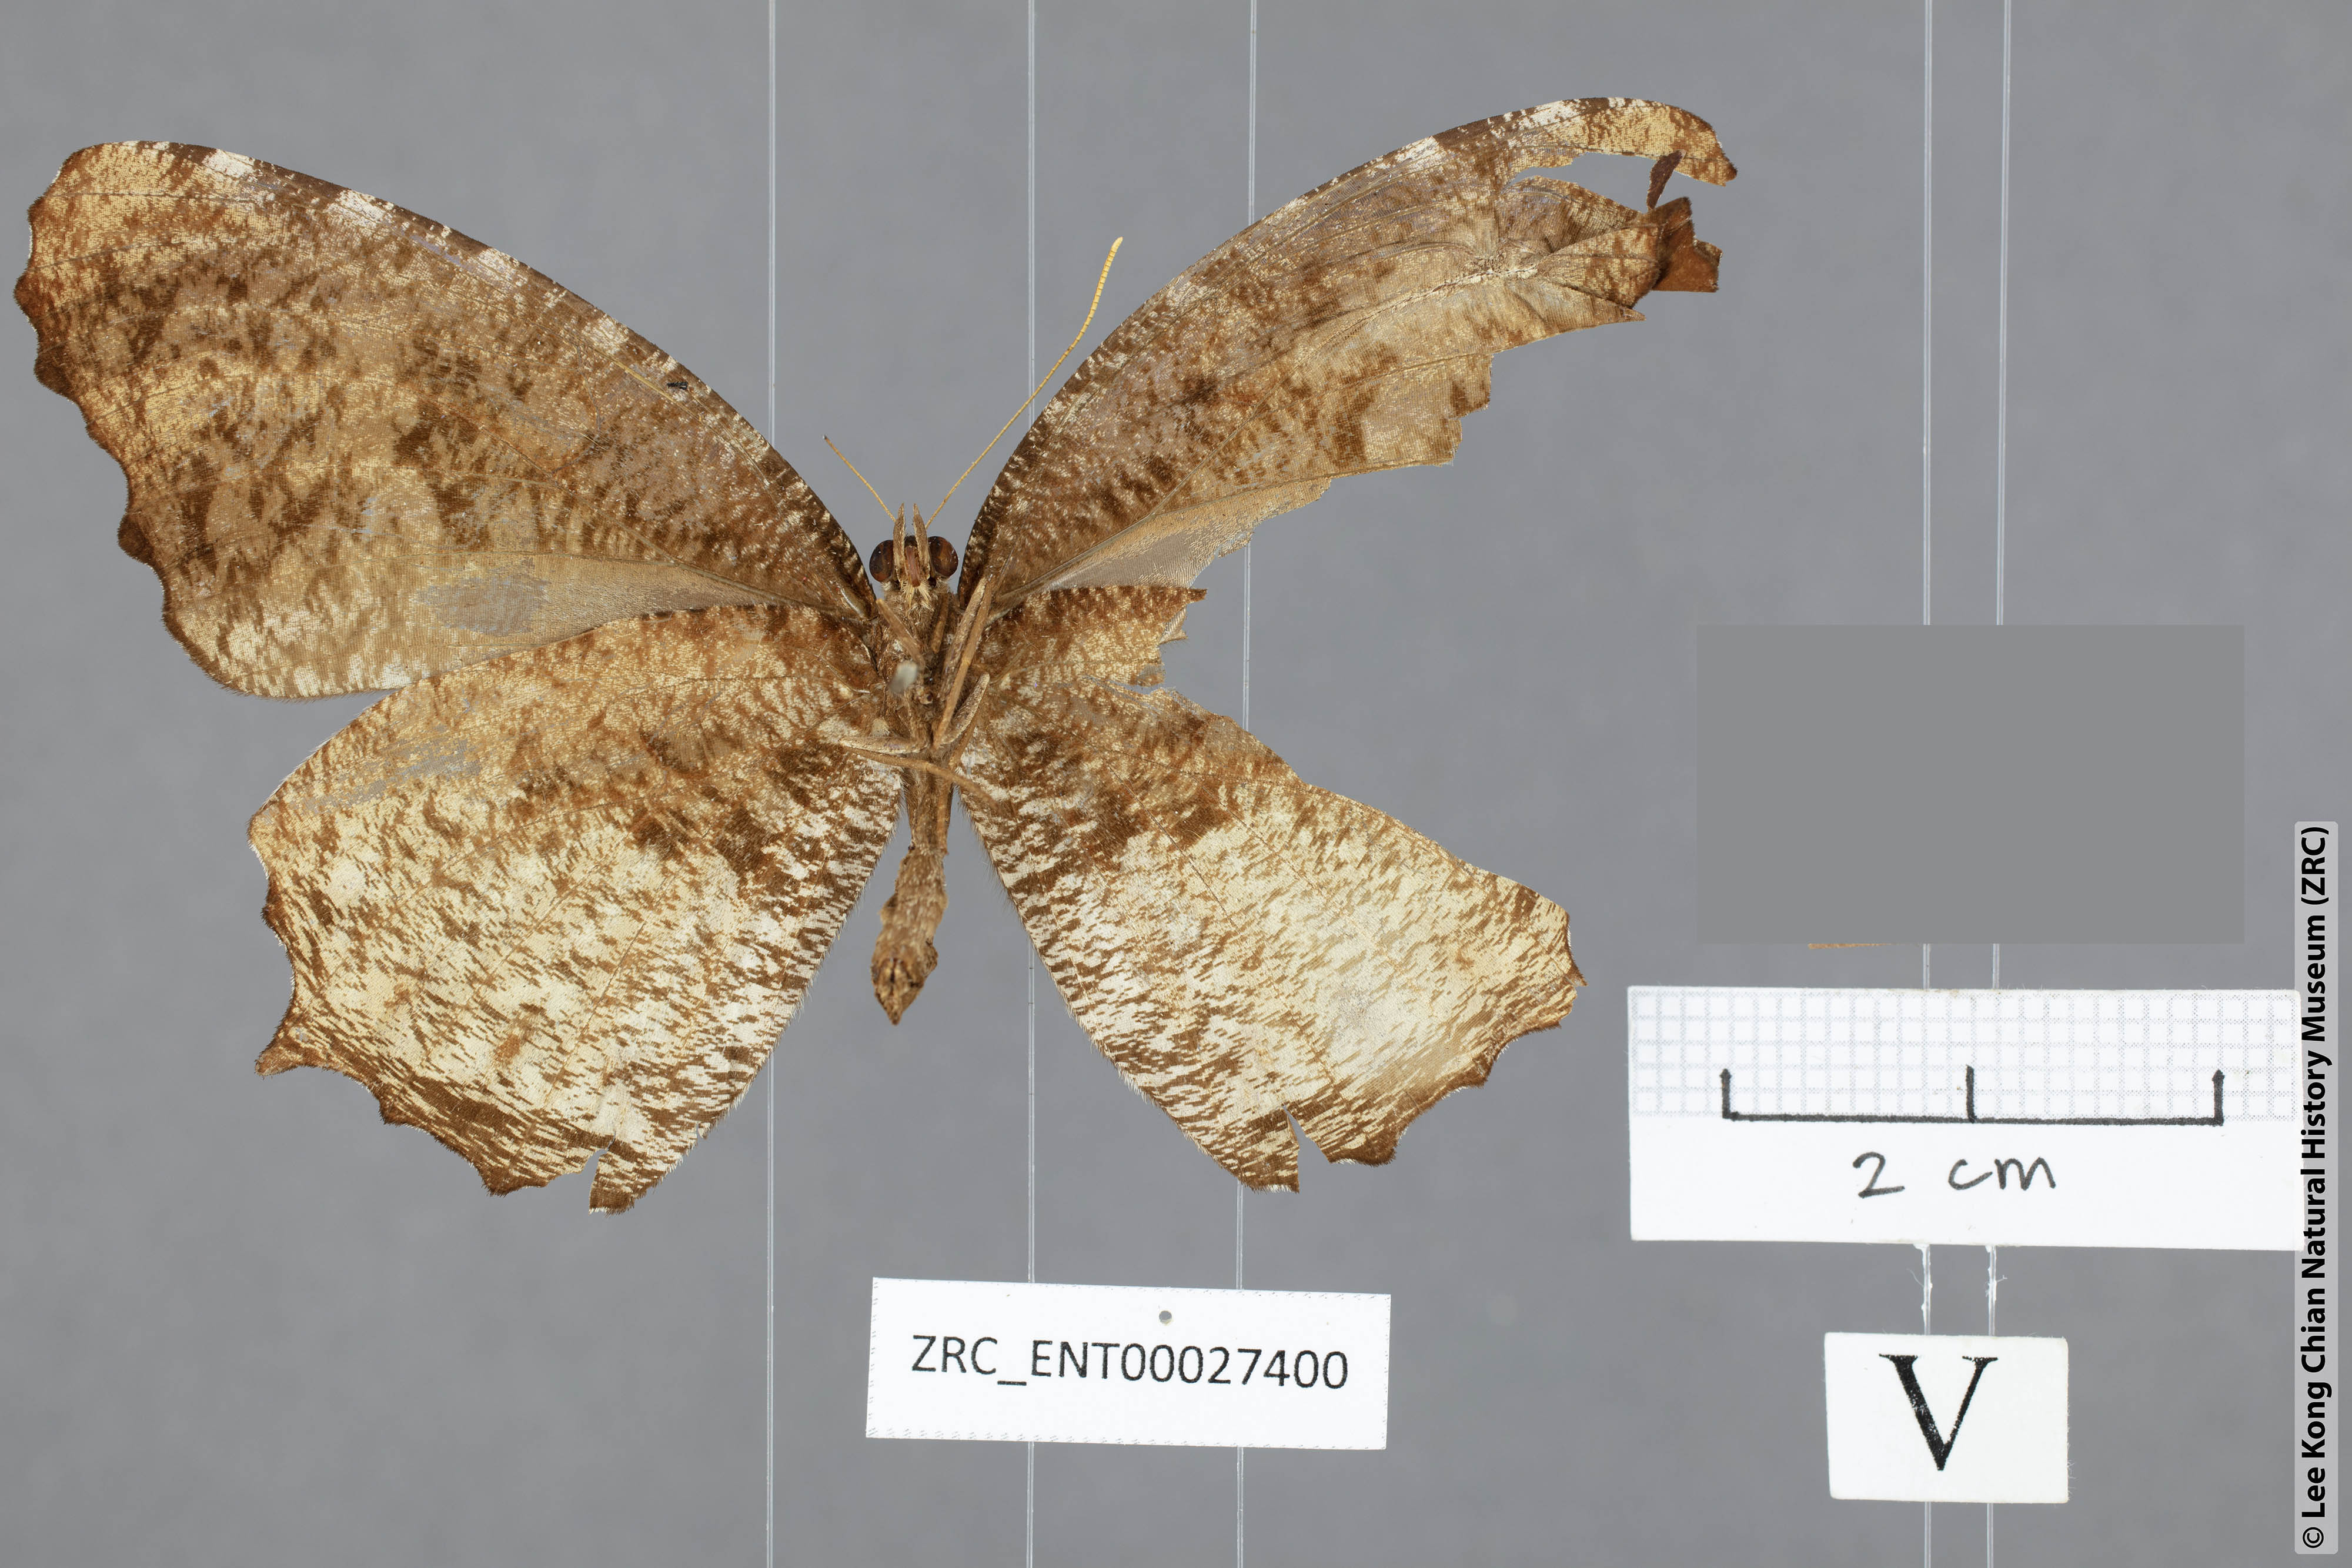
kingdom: Animalia
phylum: Arthropoda
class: Insecta
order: Lepidoptera
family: Nymphalidae
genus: Elymnias
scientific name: Elymnias kamara
